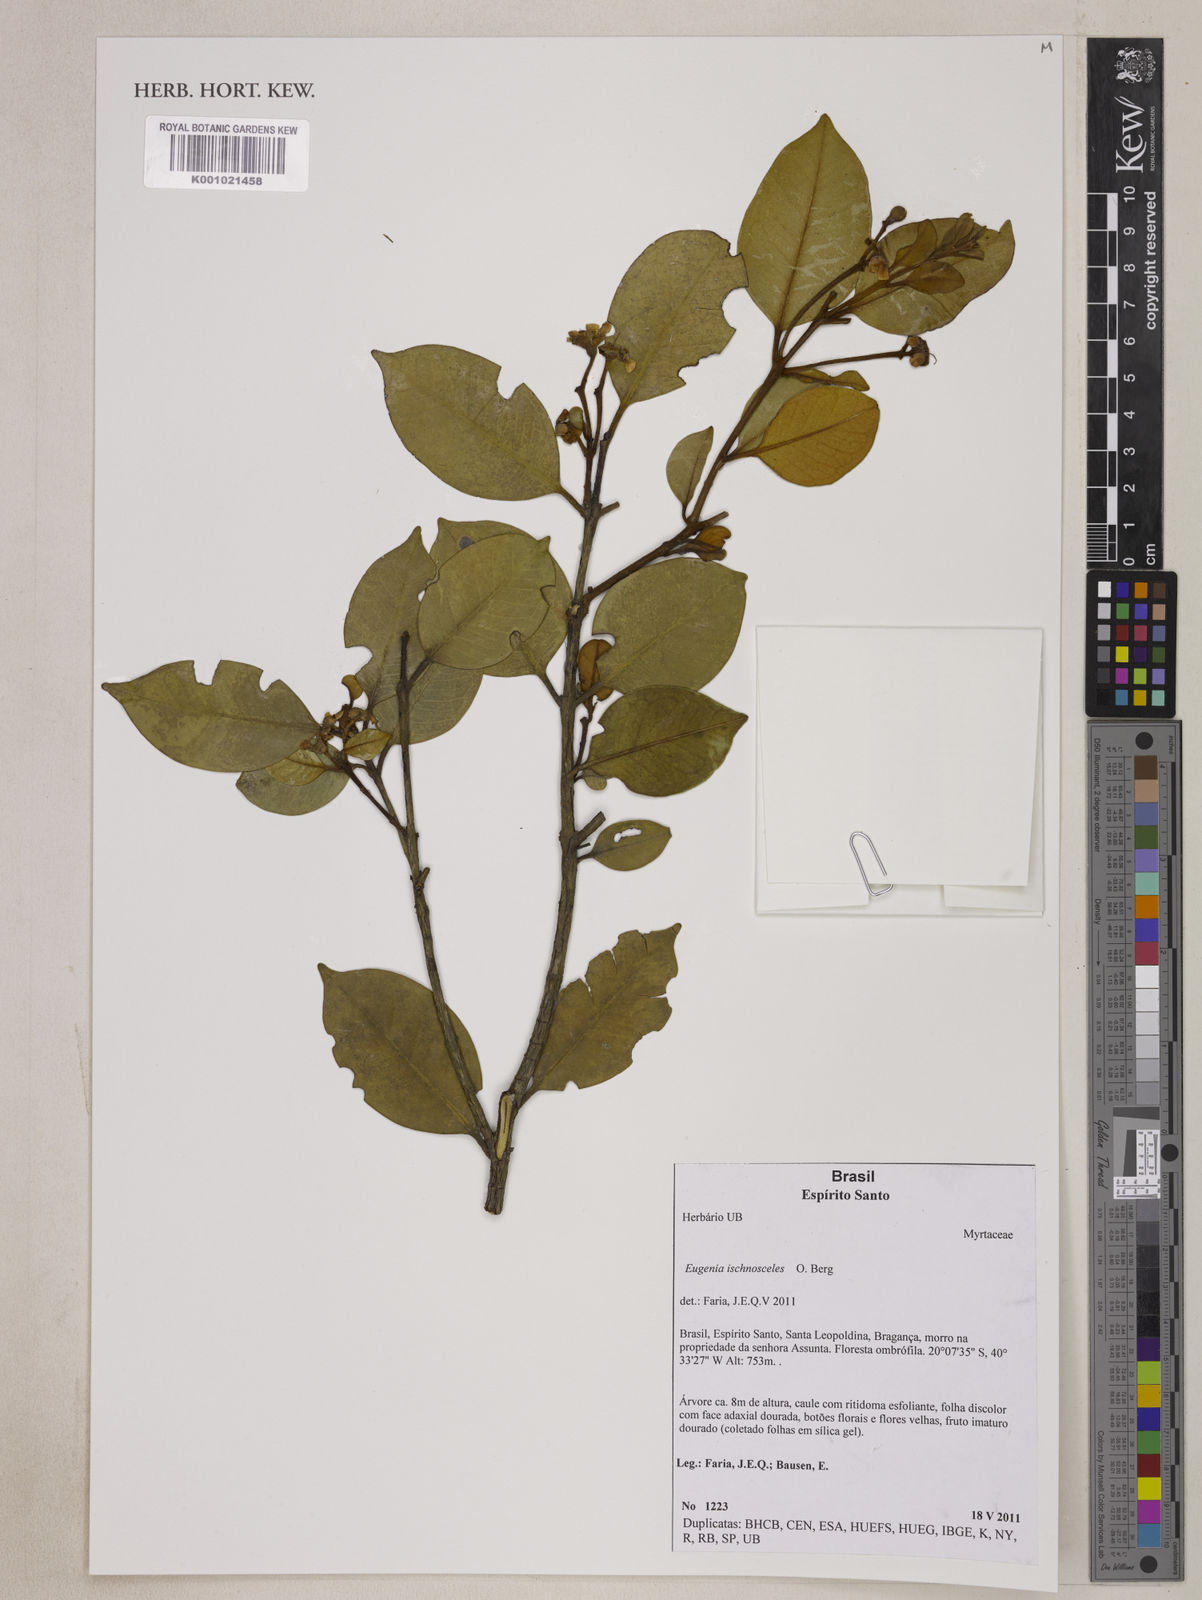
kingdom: Plantae
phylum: Tracheophyta
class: Magnoliopsida
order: Myrtales
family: Myrtaceae
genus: Eugenia
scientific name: Eugenia ischnosceles
